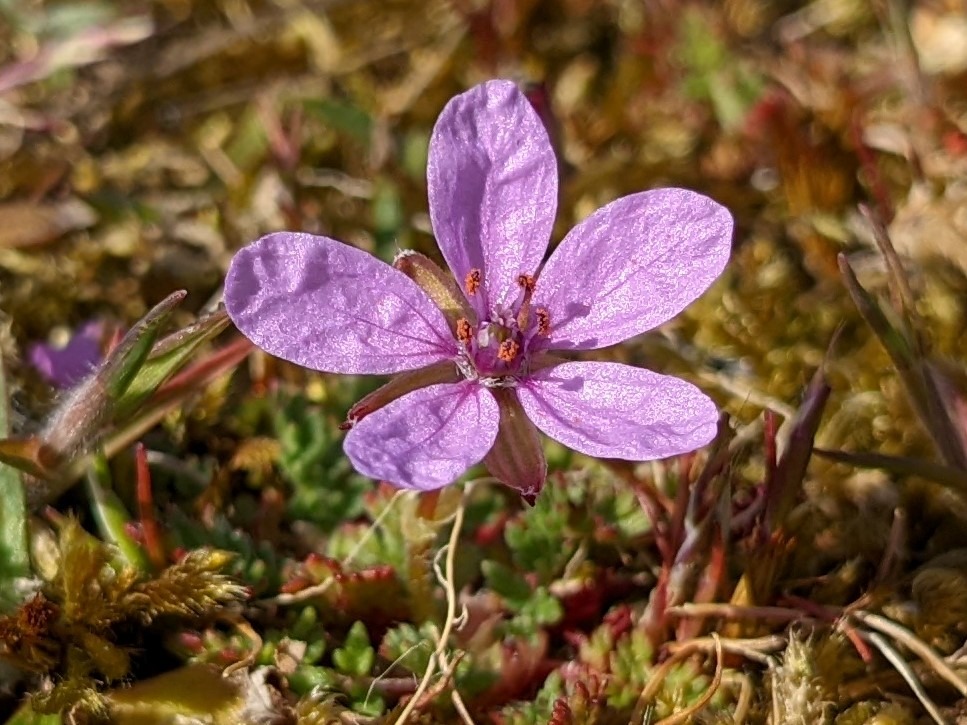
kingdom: Plantae
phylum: Tracheophyta
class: Magnoliopsida
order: Geraniales
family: Geraniaceae
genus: Erodium
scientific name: Erodium cicutarium
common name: Hejrenæb
